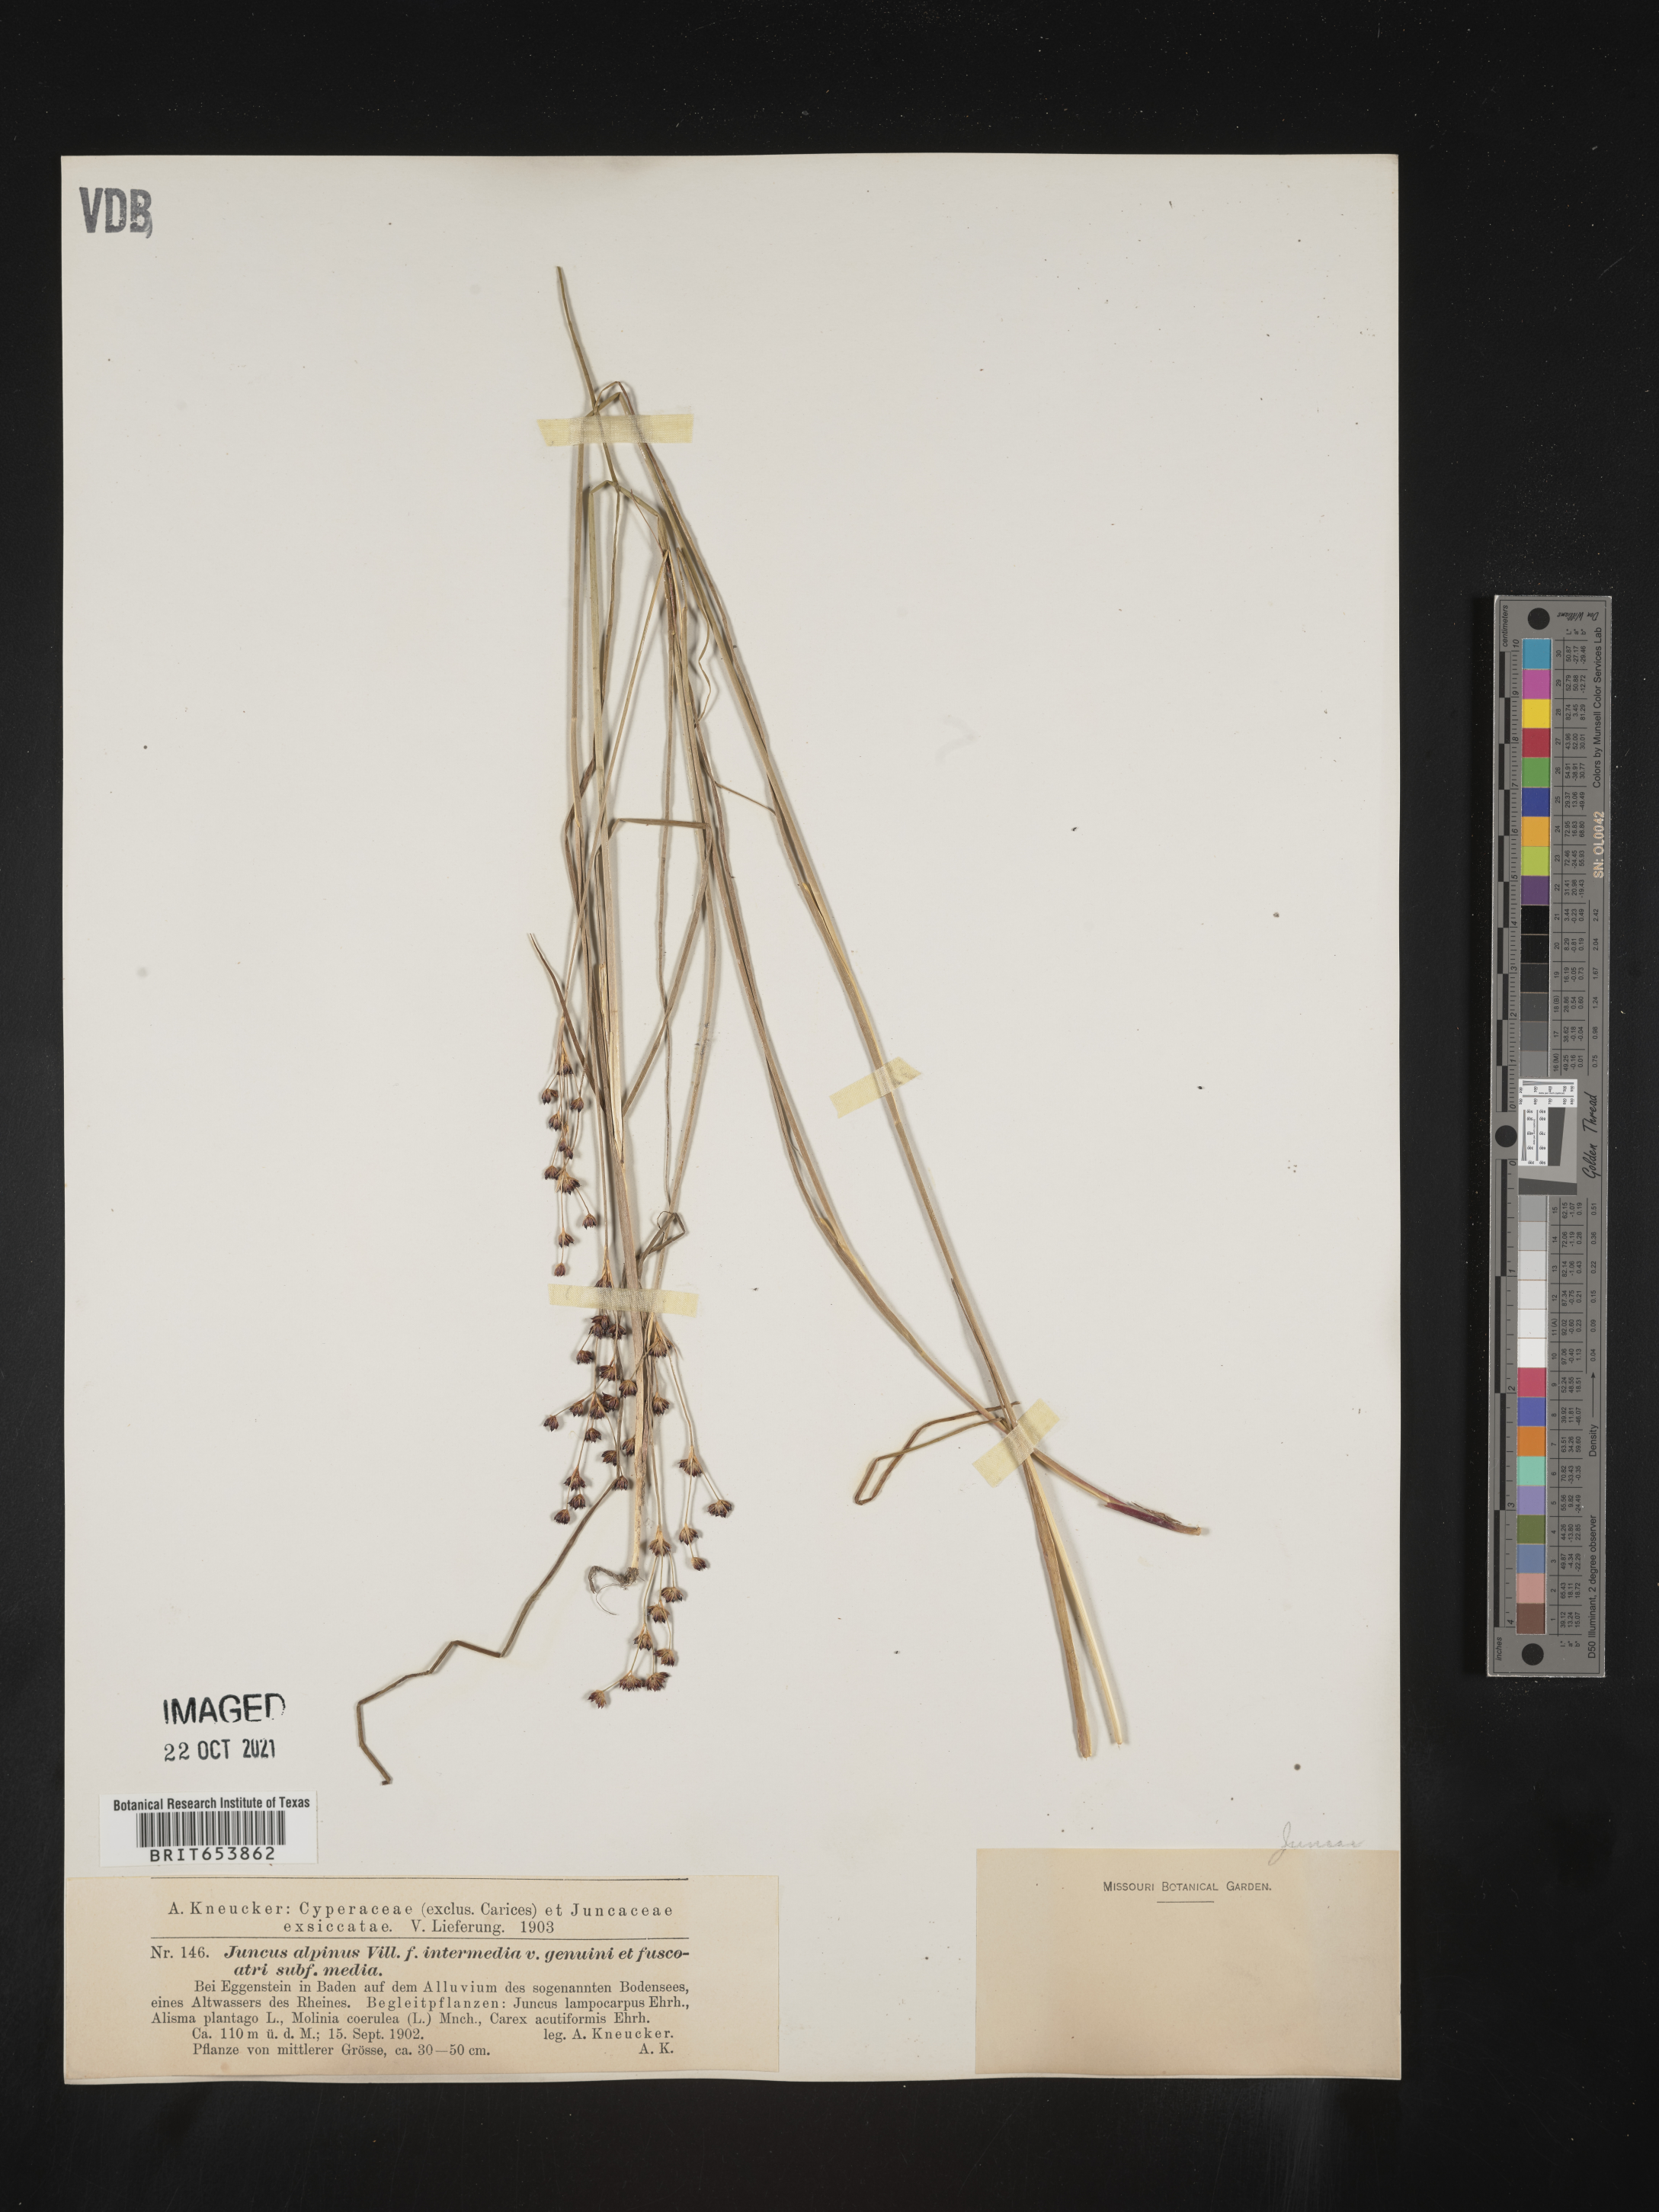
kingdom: Plantae
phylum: Tracheophyta
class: Liliopsida
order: Poales
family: Juncaceae
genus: Juncus
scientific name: Juncus alpinoarticulatus
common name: Alpine rush
